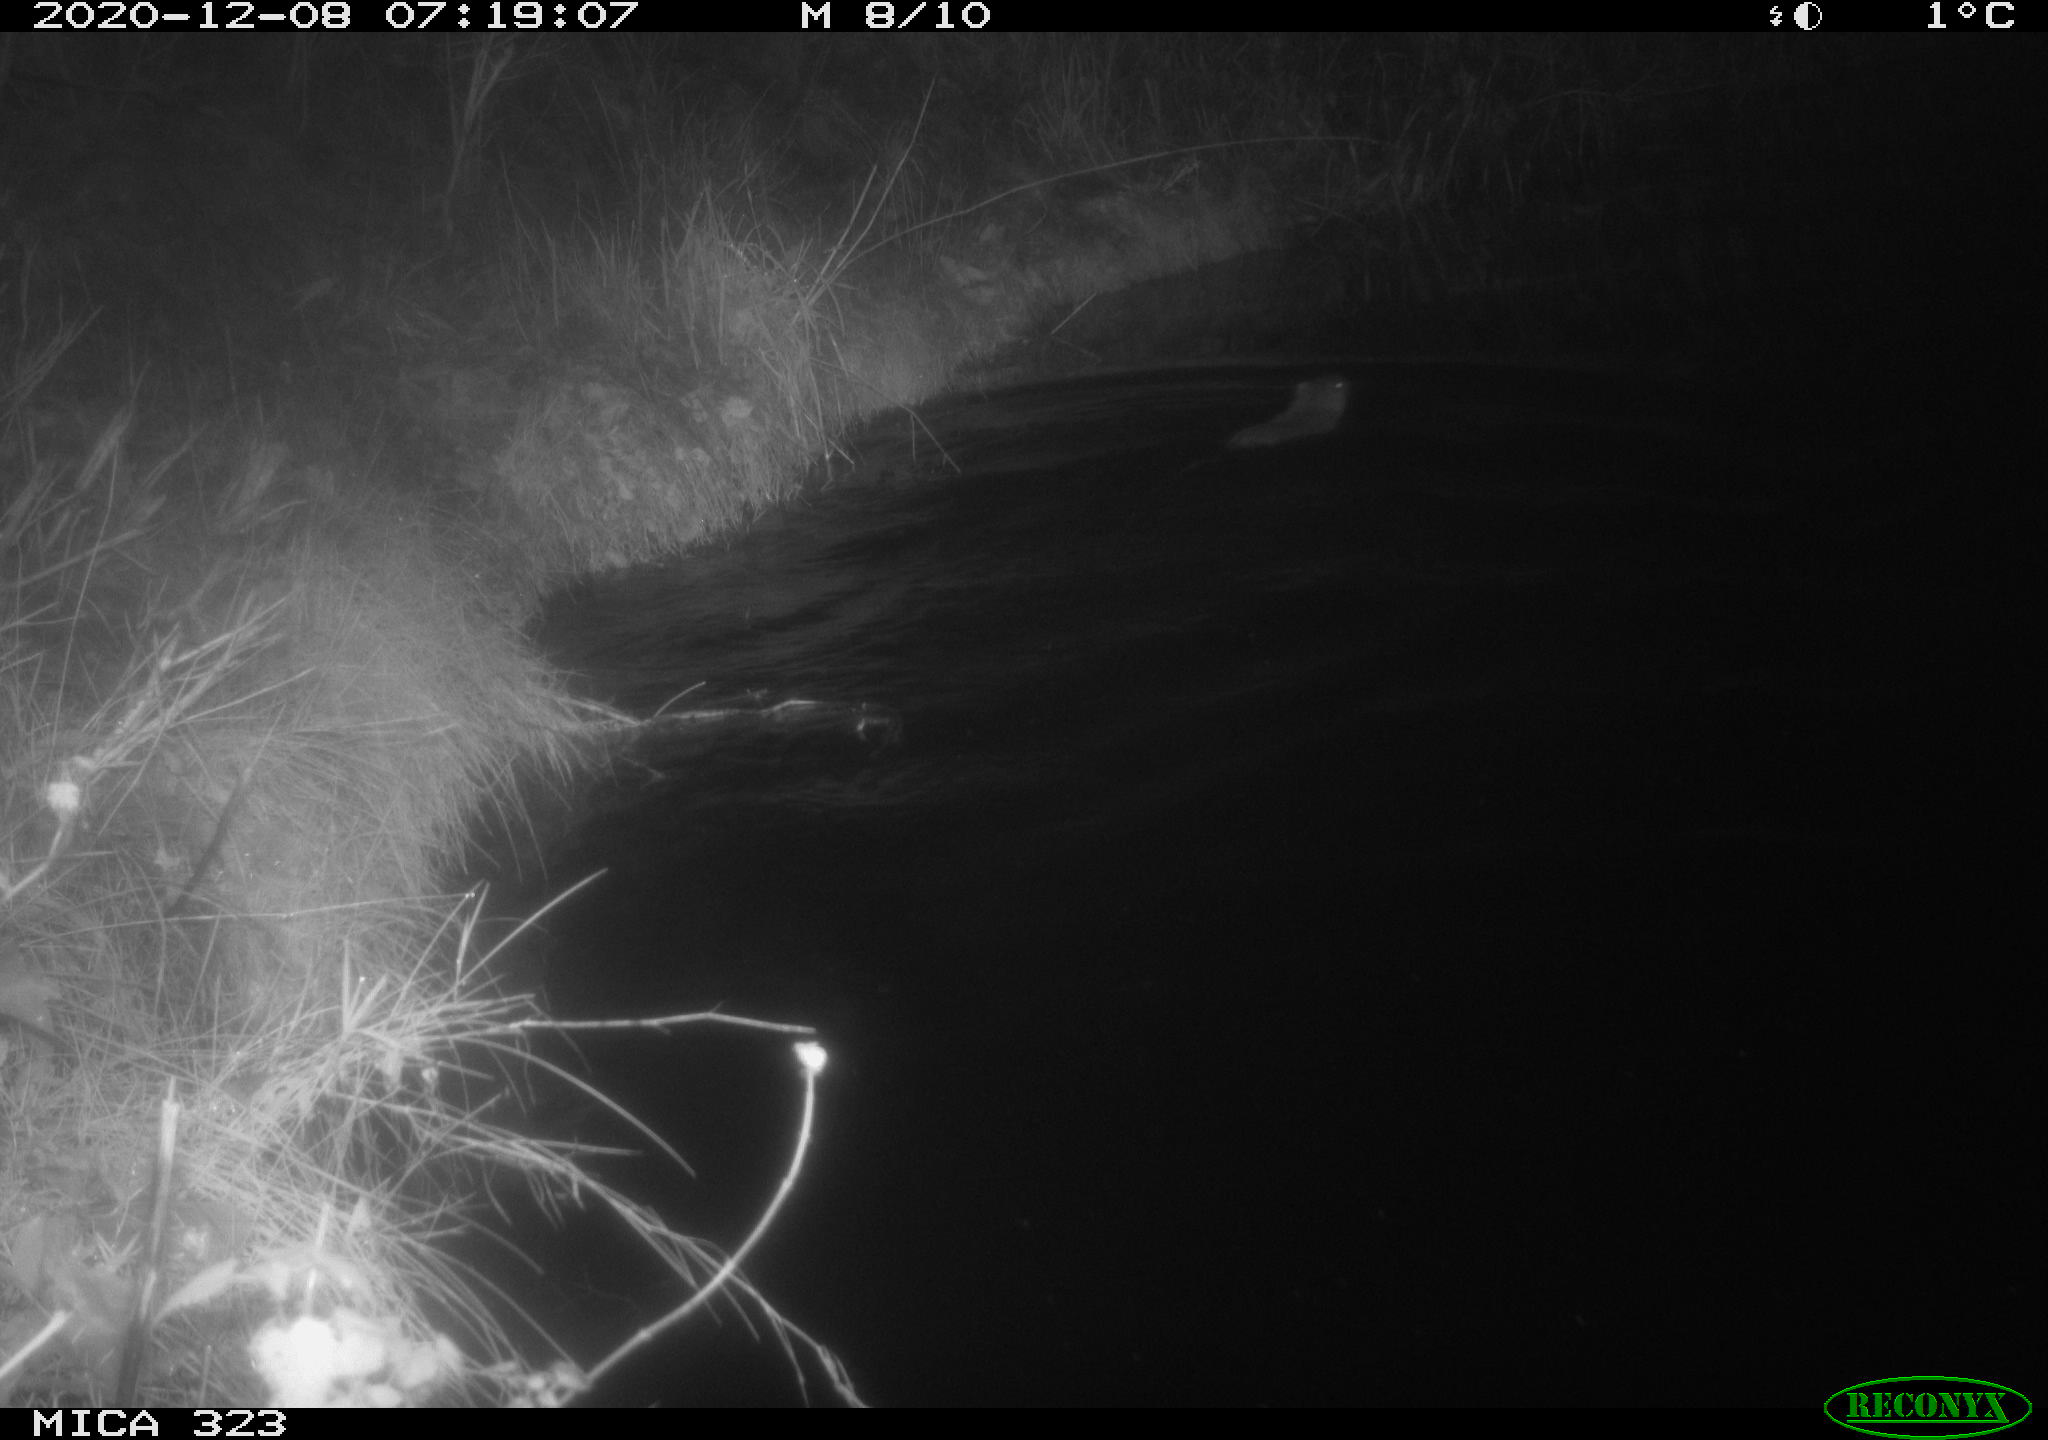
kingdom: Animalia
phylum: Chordata
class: Mammalia
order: Rodentia
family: Myocastoridae
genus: Myocastor
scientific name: Myocastor coypus
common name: Coypu
